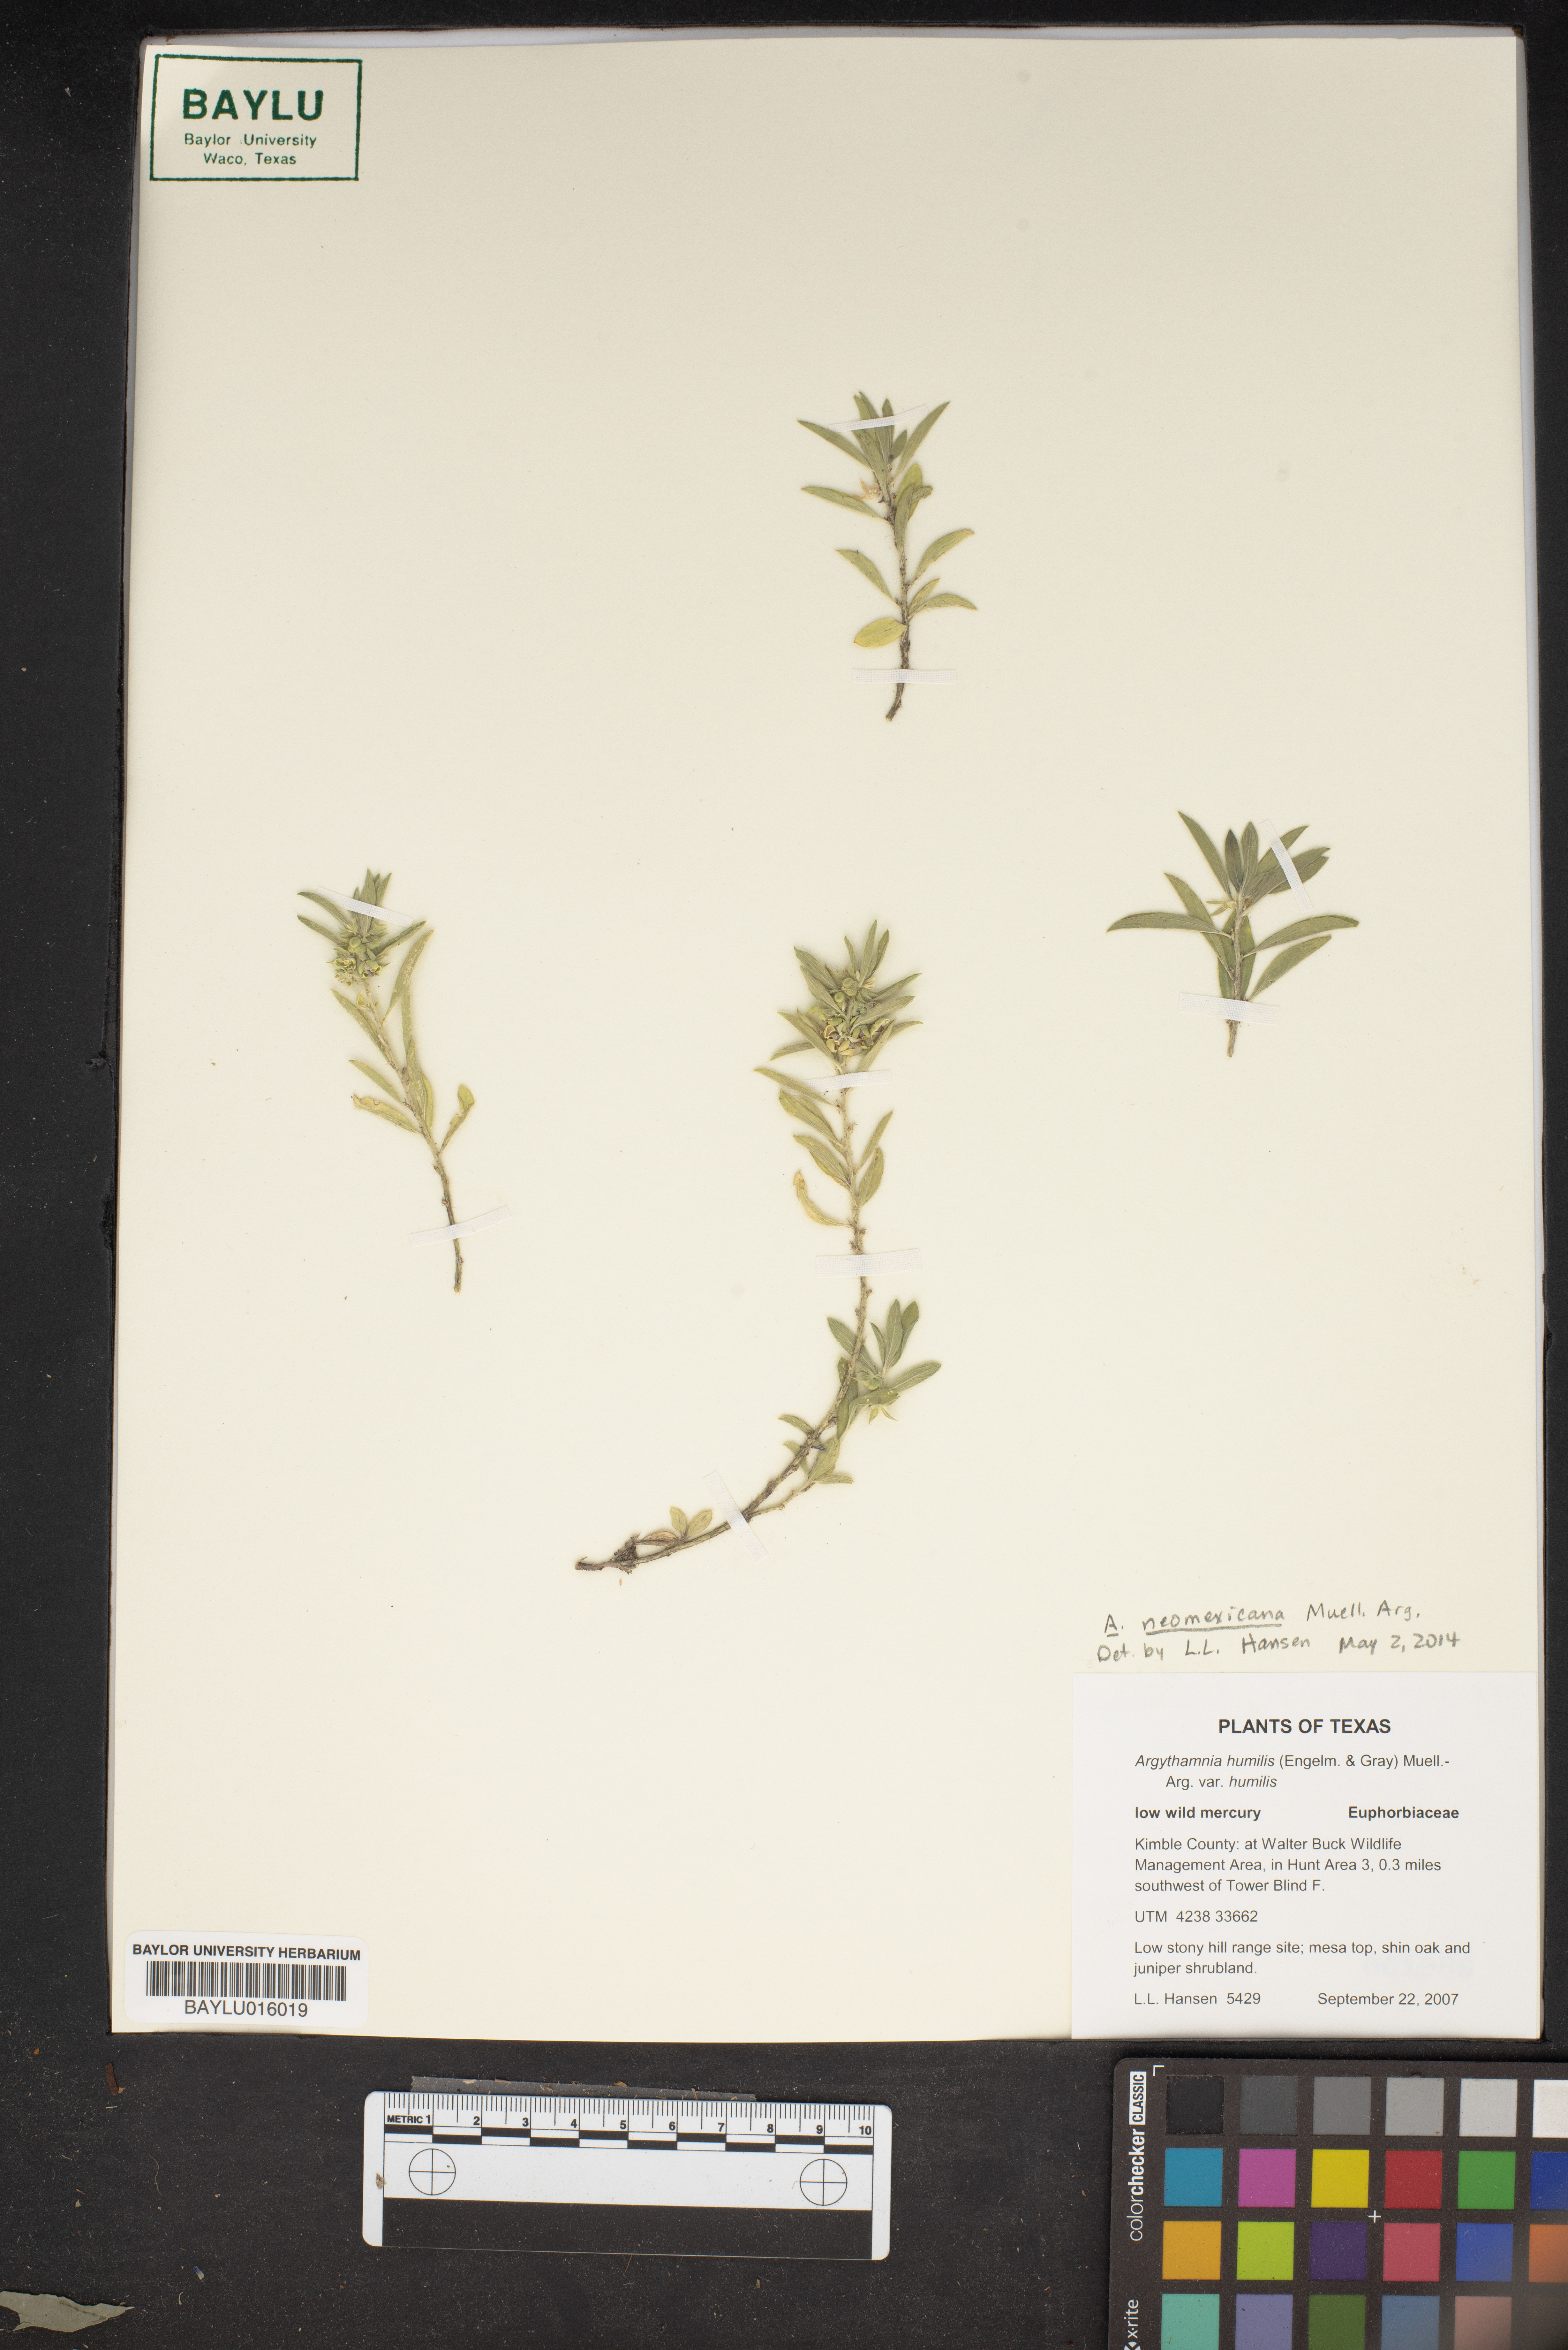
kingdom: Plantae
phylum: Tracheophyta
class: Magnoliopsida
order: Malpighiales
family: Euphorbiaceae
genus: Ditaxis
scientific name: Ditaxis humilis
